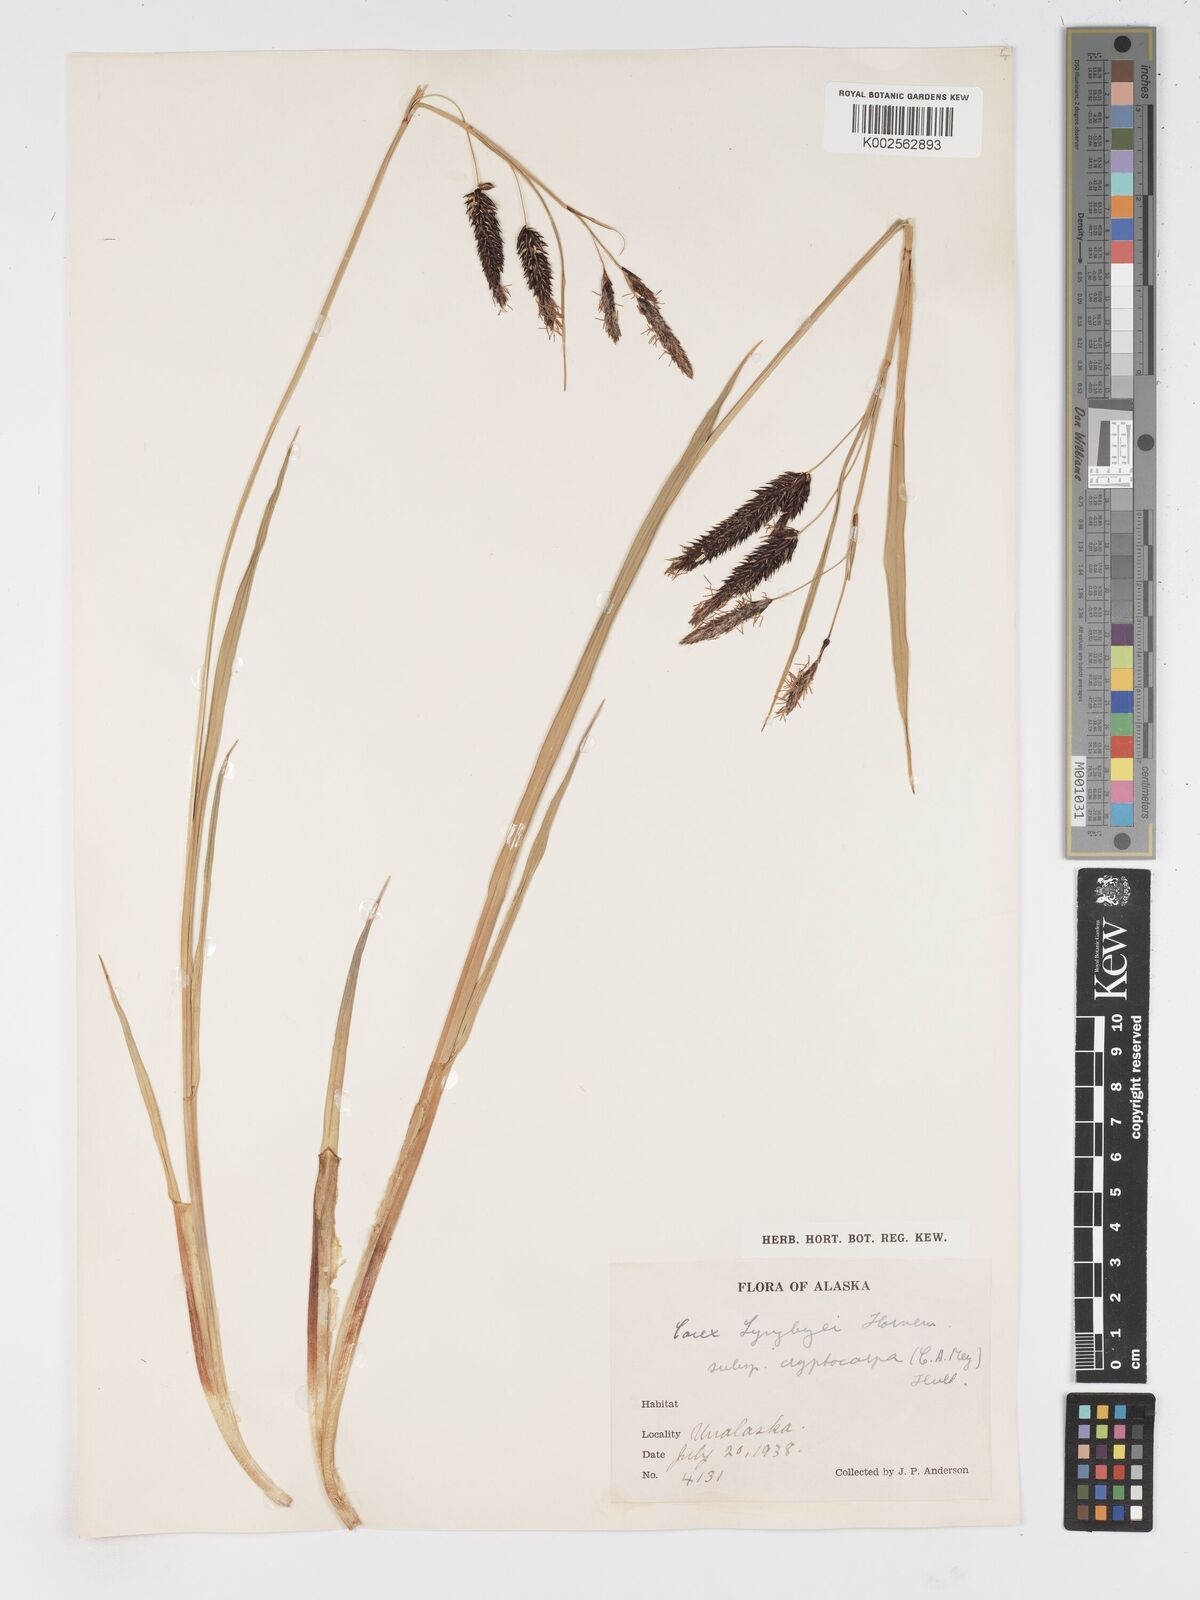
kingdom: Plantae
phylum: Tracheophyta
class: Liliopsida
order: Poales
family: Cyperaceae
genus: Carex
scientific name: Carex lyngbyei
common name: Lyngbye's sedge
